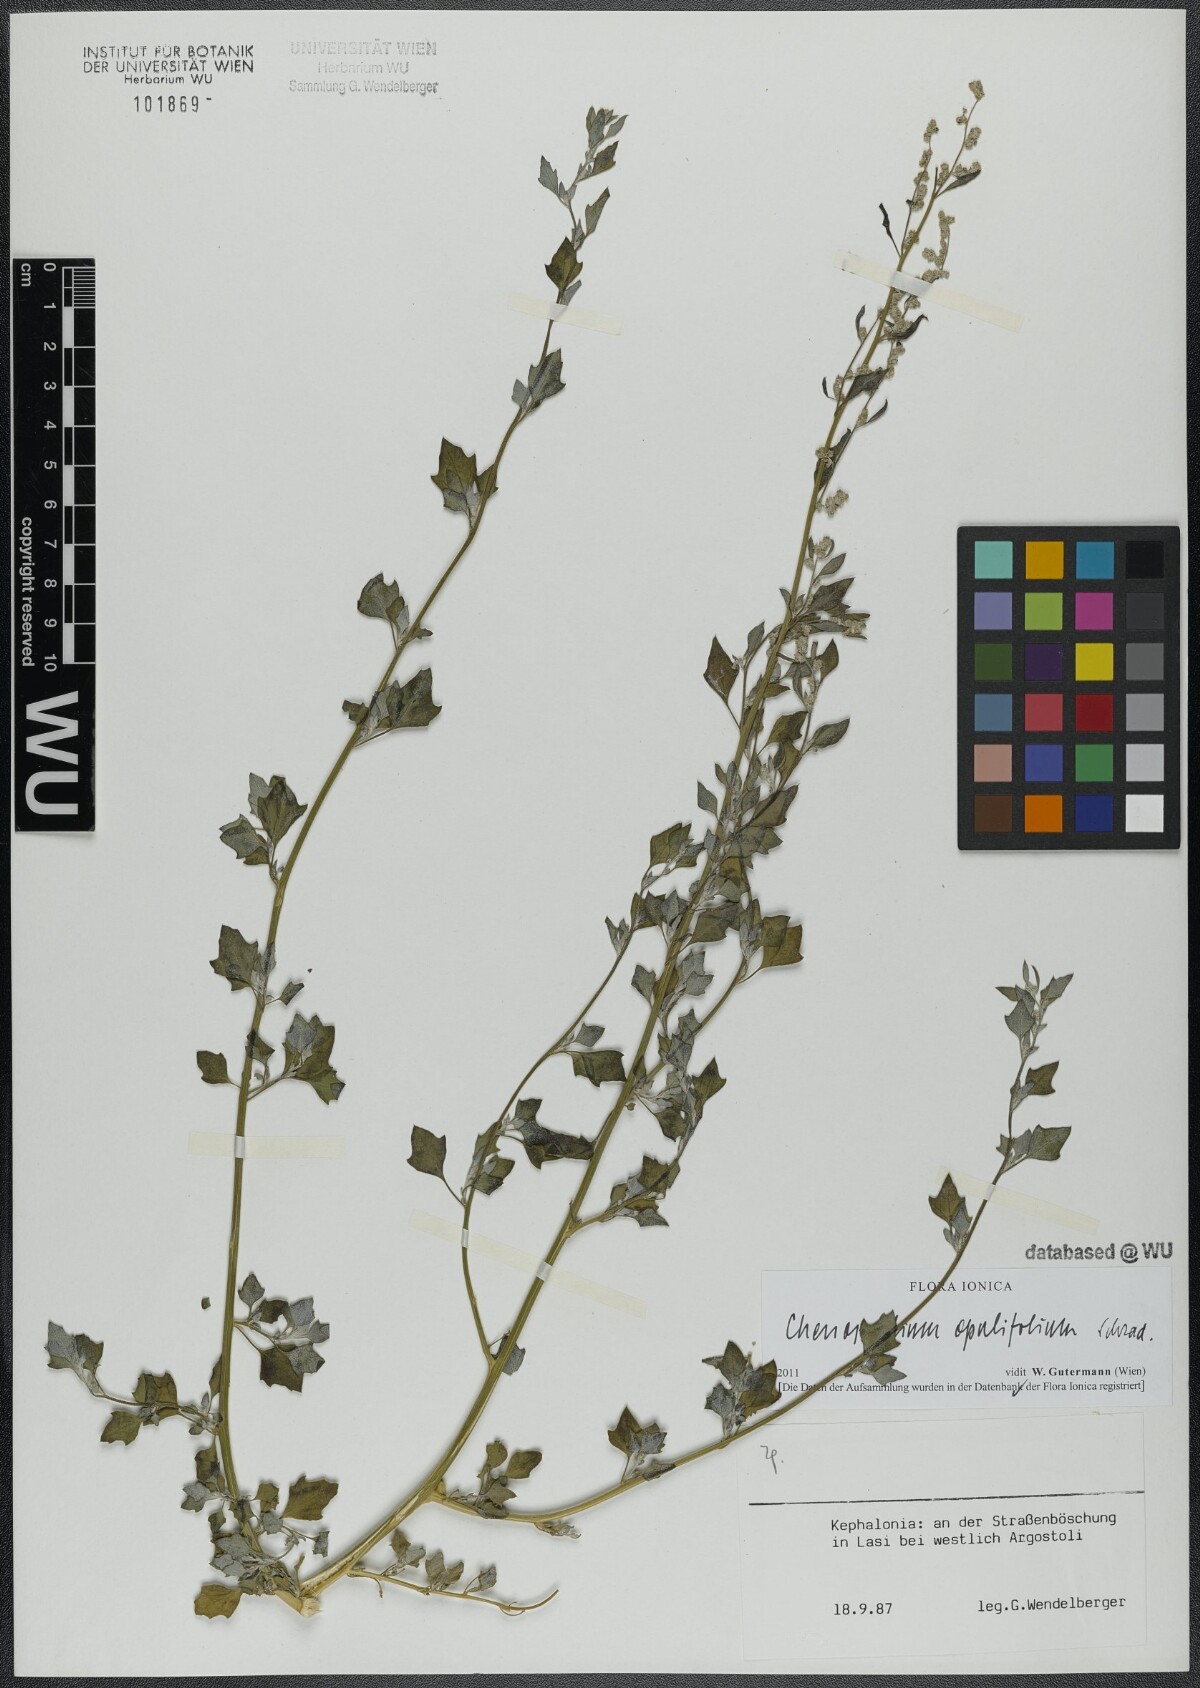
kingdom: Plantae
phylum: Tracheophyta
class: Magnoliopsida
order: Caryophyllales
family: Amaranthaceae
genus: Chenopodium
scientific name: Chenopodium opulifolium
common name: Grey goosefoot
